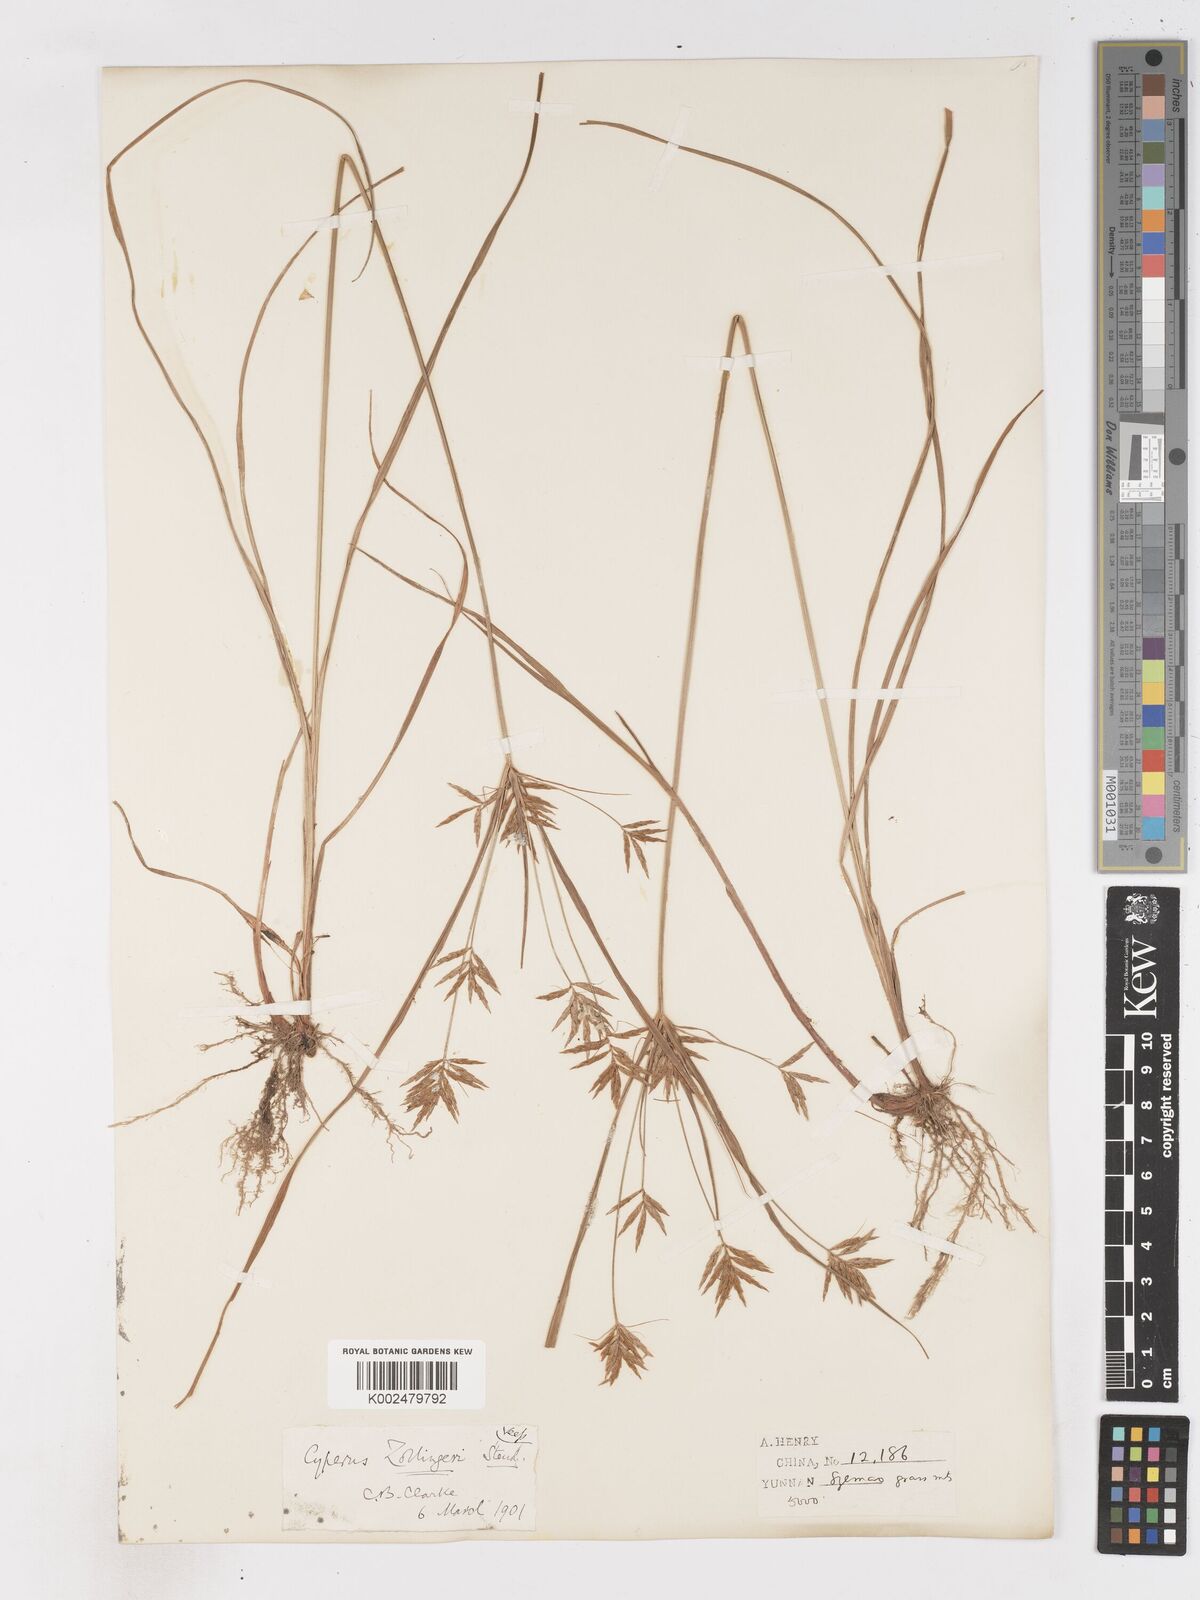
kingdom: Plantae
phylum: Tracheophyta
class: Liliopsida
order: Poales
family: Cyperaceae
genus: Cyperus
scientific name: Cyperus tenuiculmis
